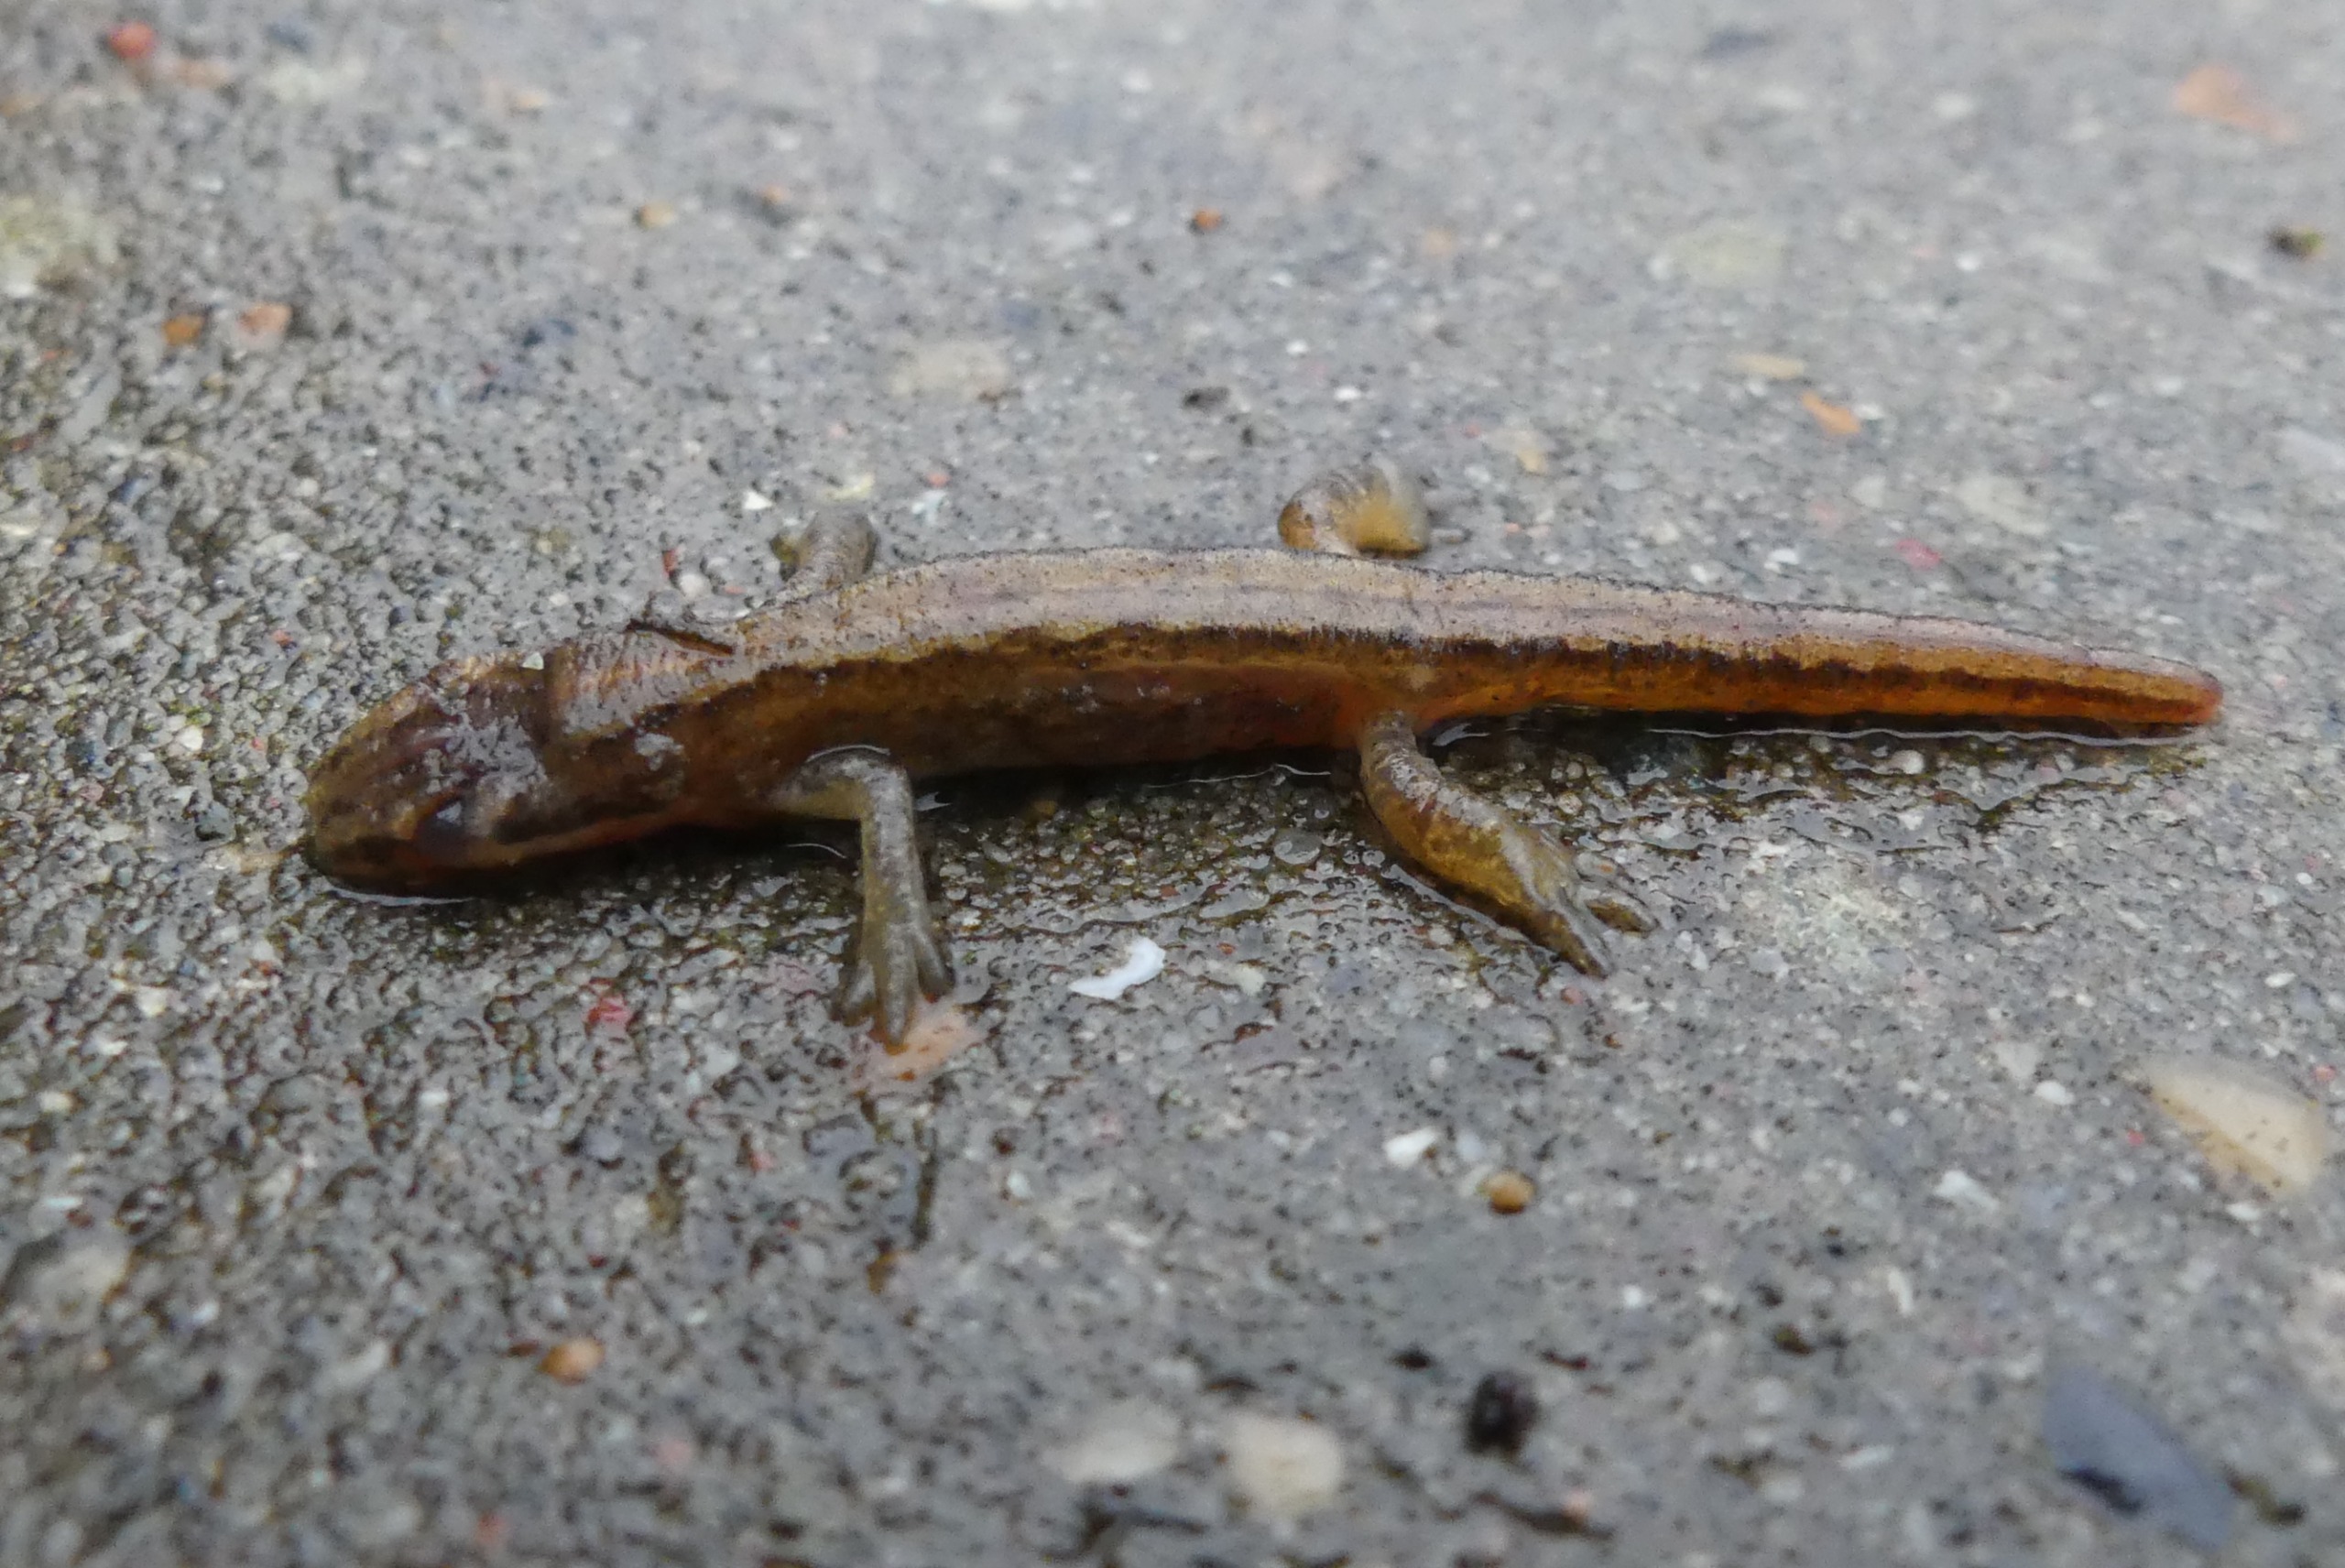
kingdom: Animalia
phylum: Chordata
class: Amphibia
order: Caudata
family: Salamandridae
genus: Lissotriton
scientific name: Lissotriton vulgaris
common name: Lille vandsalamander
